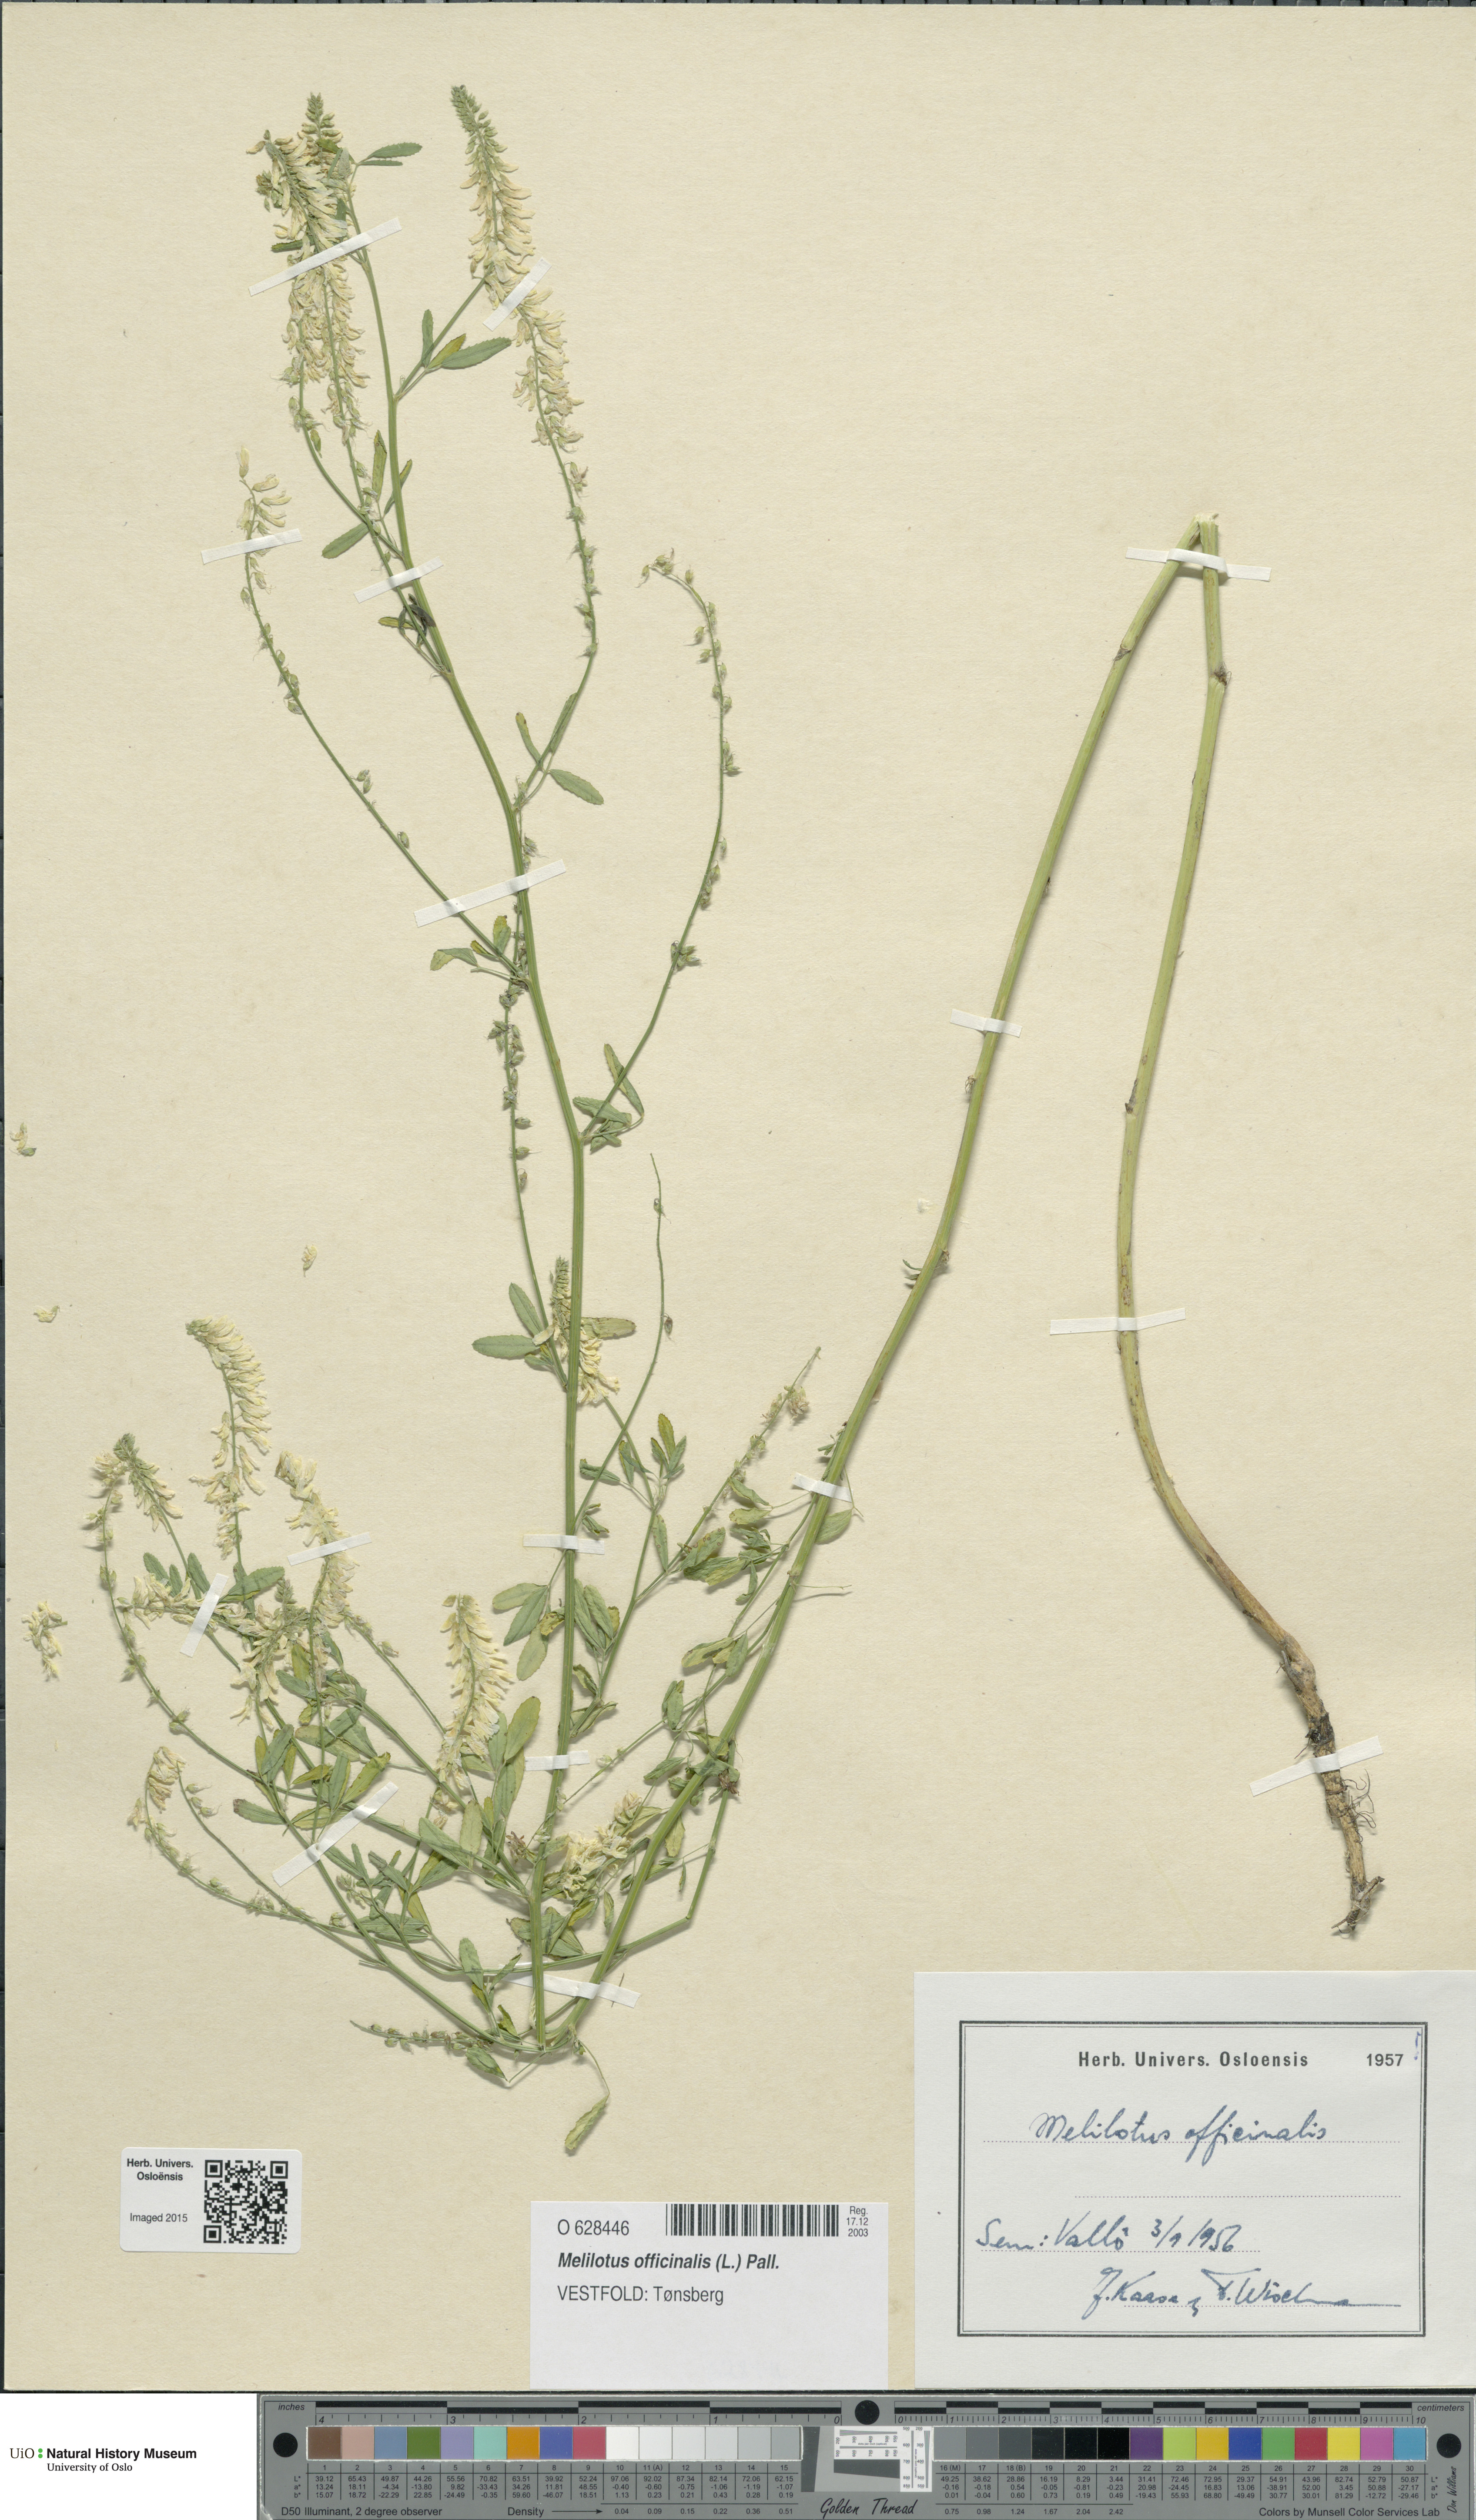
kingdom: Plantae
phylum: Tracheophyta
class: Magnoliopsida
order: Fabales
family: Fabaceae
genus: Melilotus
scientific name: Melilotus officinalis
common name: Sweetclover
